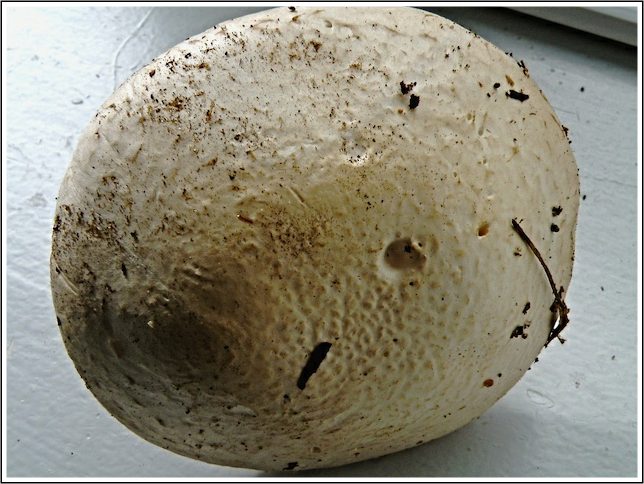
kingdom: Fungi
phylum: Basidiomycota
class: Agaricomycetes
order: Agaricales
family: Agaricaceae
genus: Agaricus
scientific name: Agaricus campestris
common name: mark-champignon
